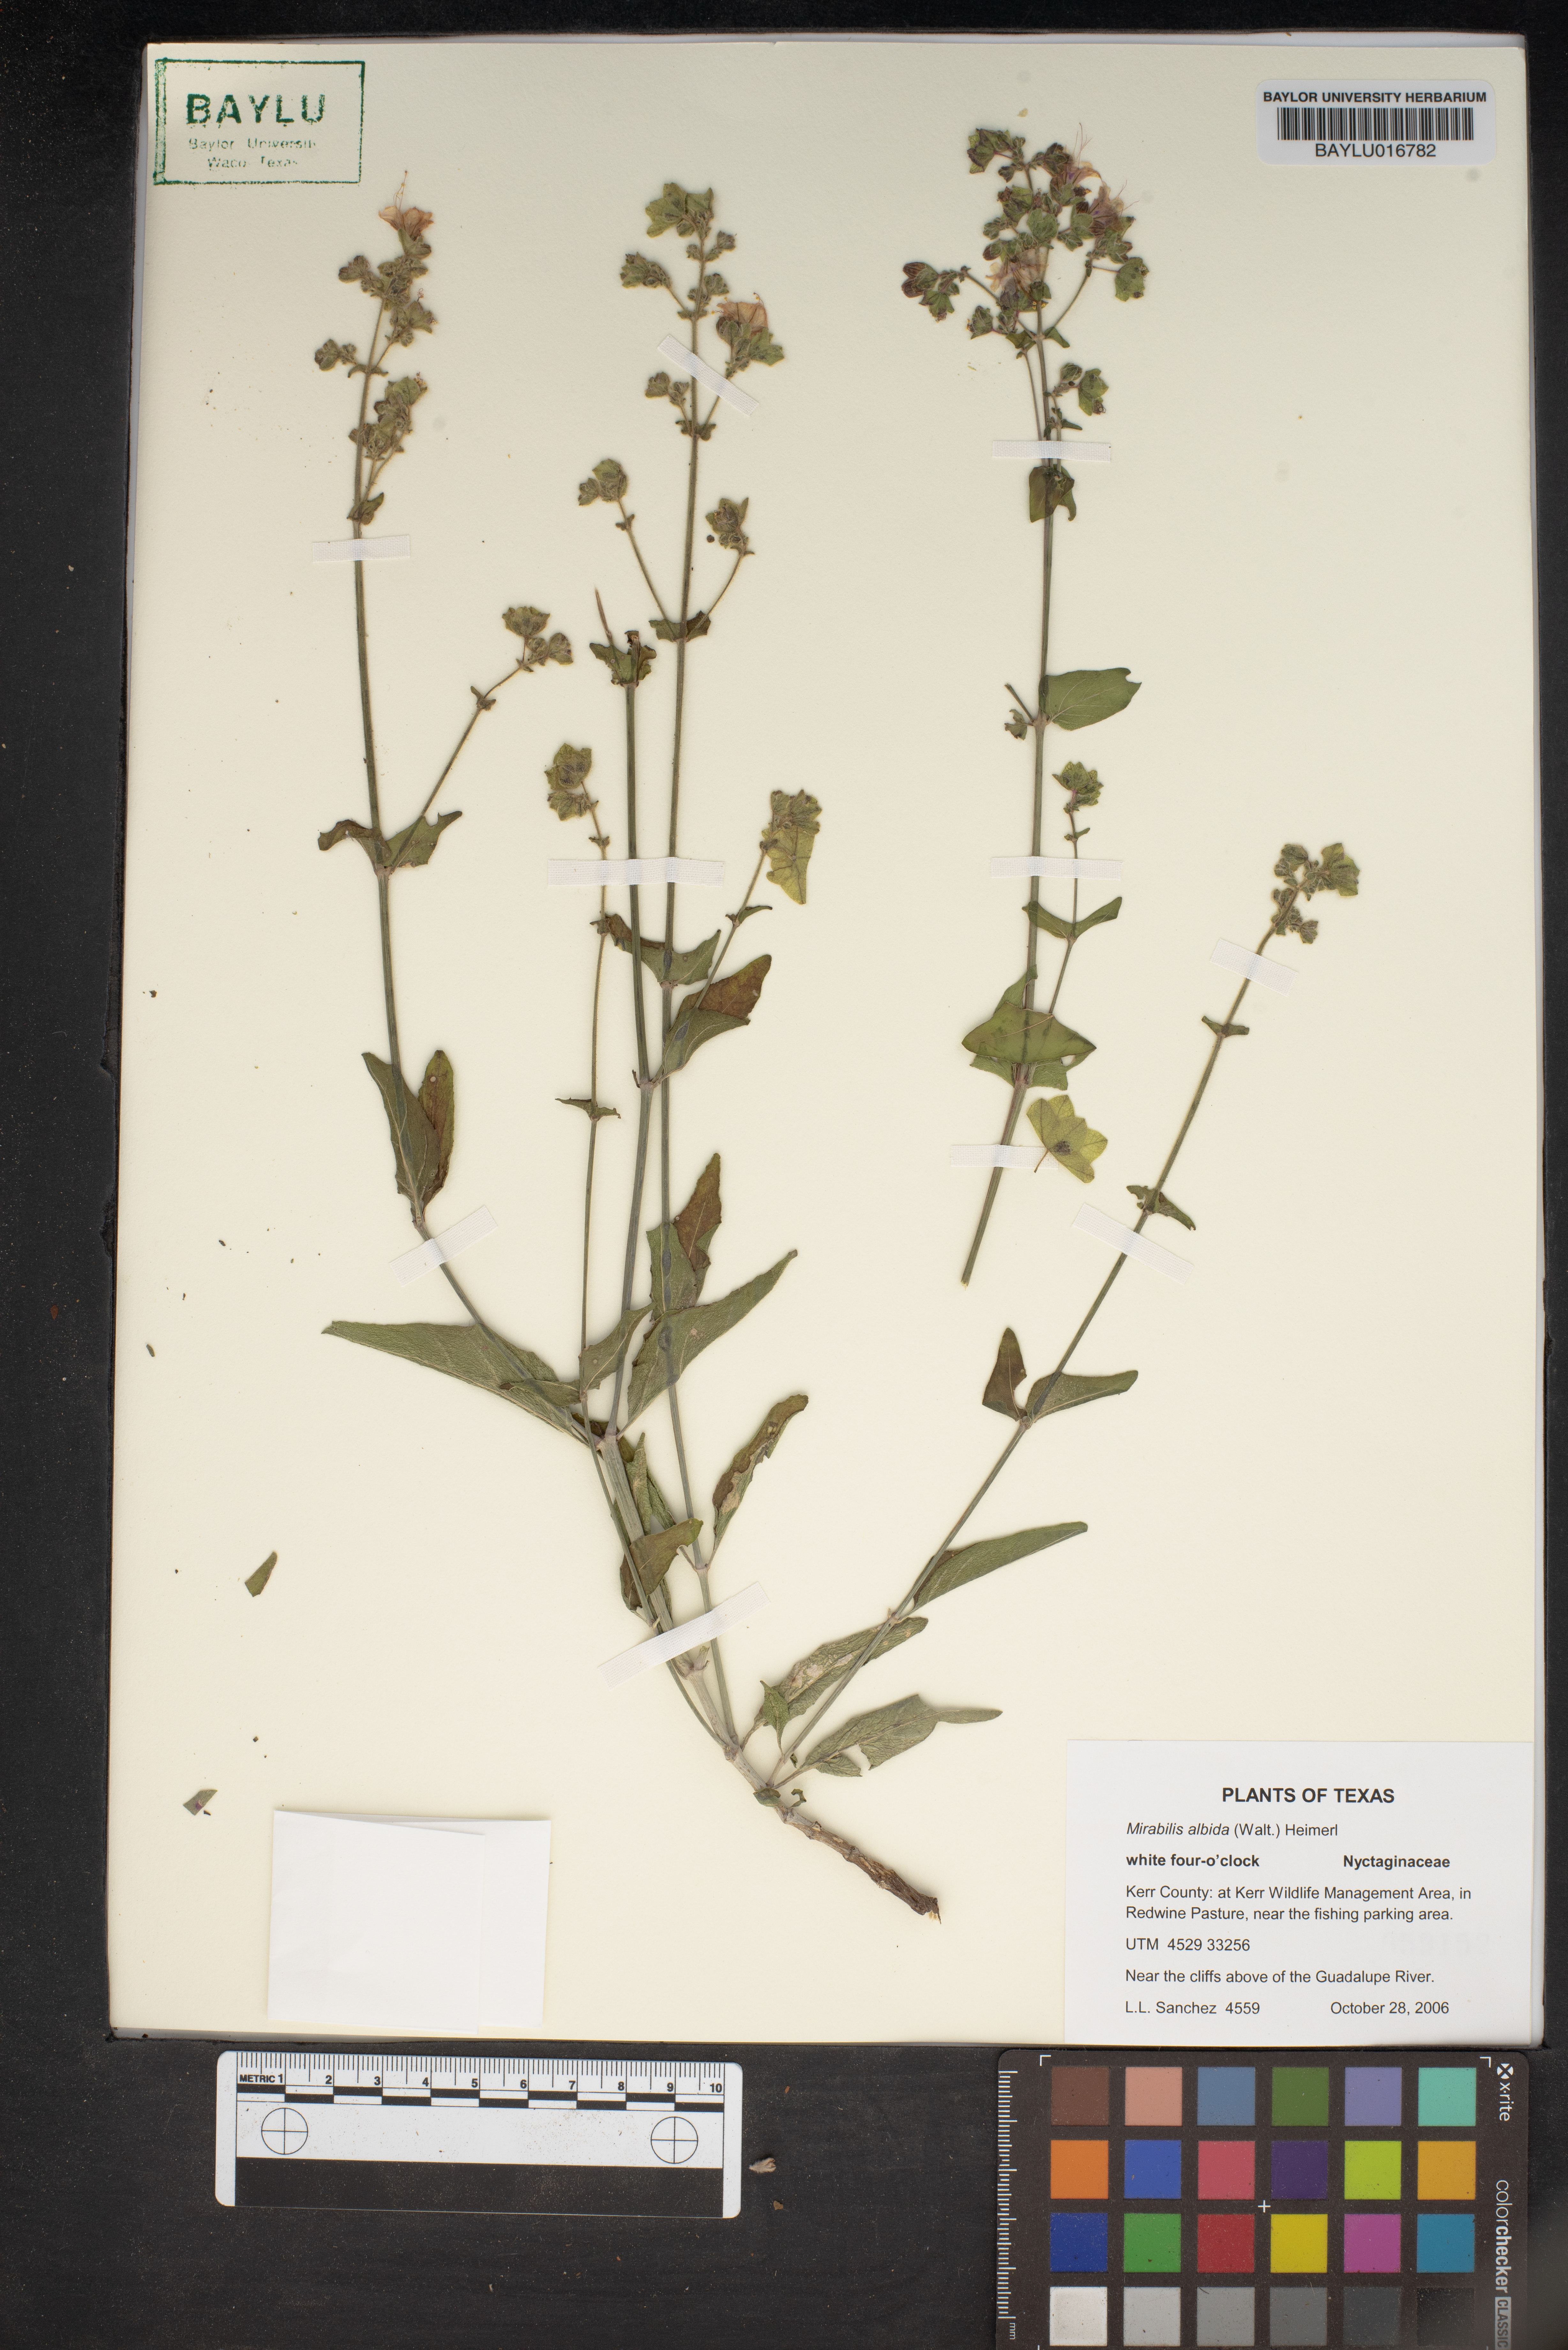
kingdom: Plantae
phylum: Tracheophyta
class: Magnoliopsida
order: Caryophyllales
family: Nyctaginaceae
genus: Mirabilis
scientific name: Mirabilis albida
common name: Hairy four-o'clock
